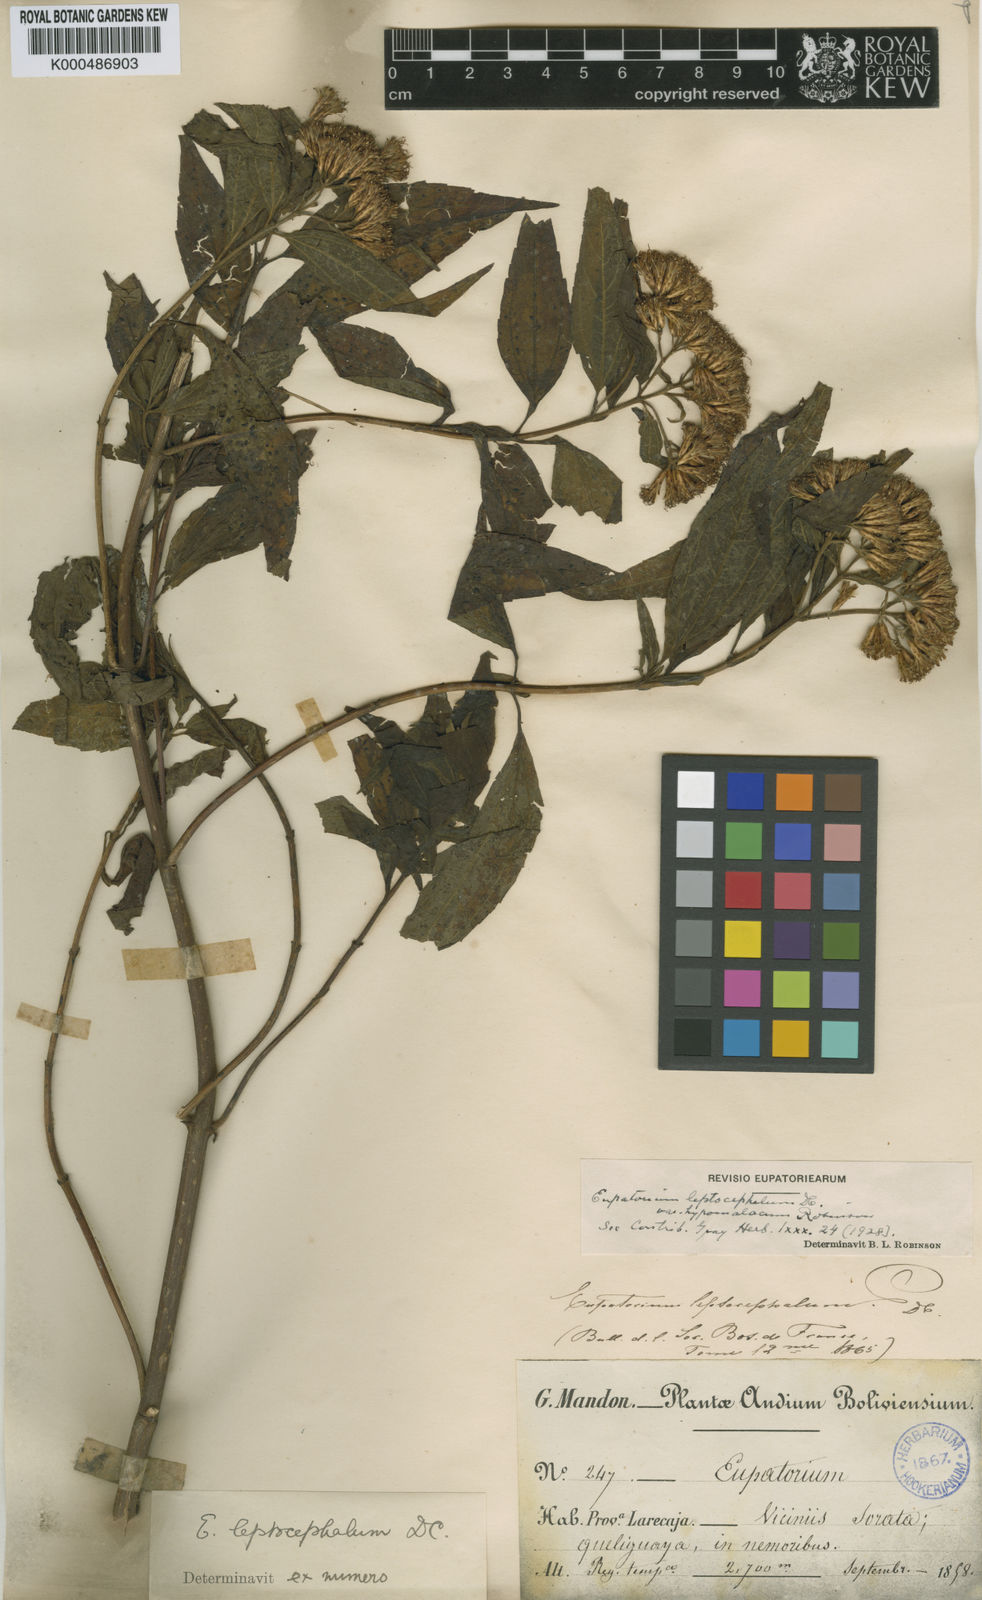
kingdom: Plantae
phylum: Tracheophyta
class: Magnoliopsida
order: Asterales
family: Asteraceae
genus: Chromolaena
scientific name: Chromolaena leptocephala
